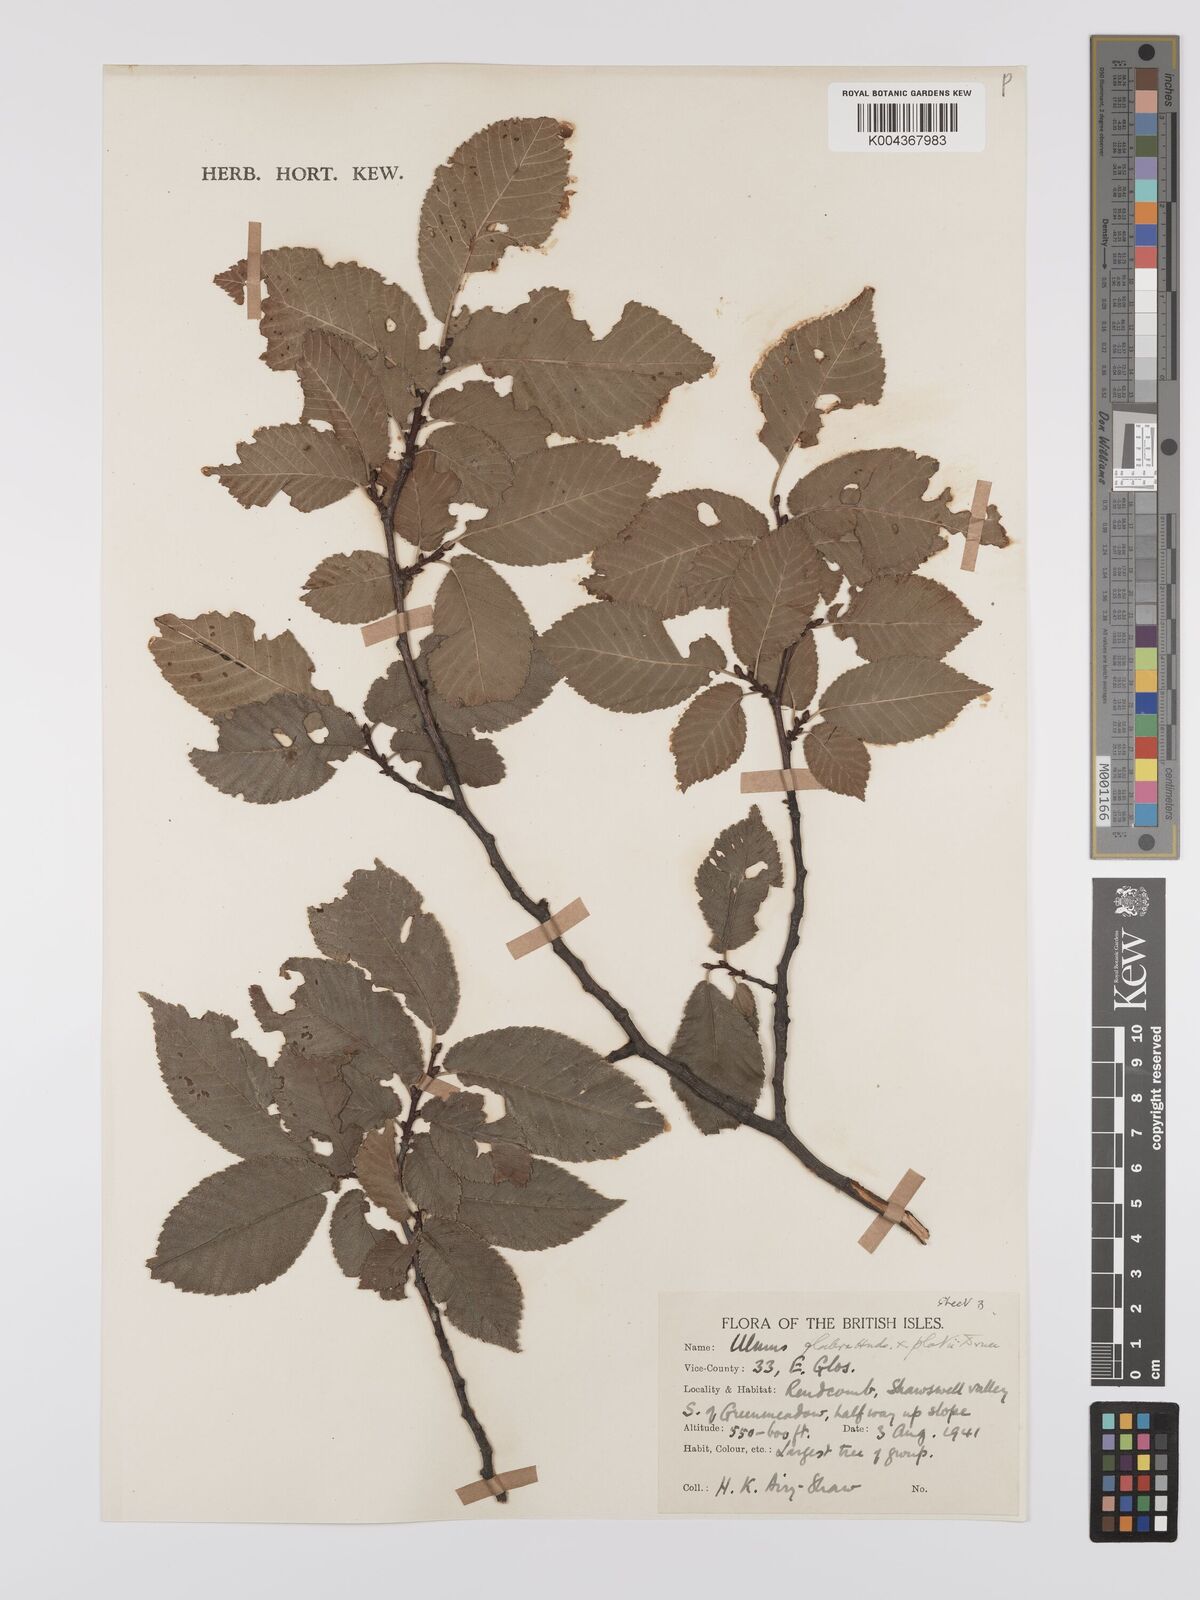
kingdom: Plantae
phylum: Tracheophyta
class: Magnoliopsida
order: Rosales
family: Ulmaceae
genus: Ulmus
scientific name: Ulmus
